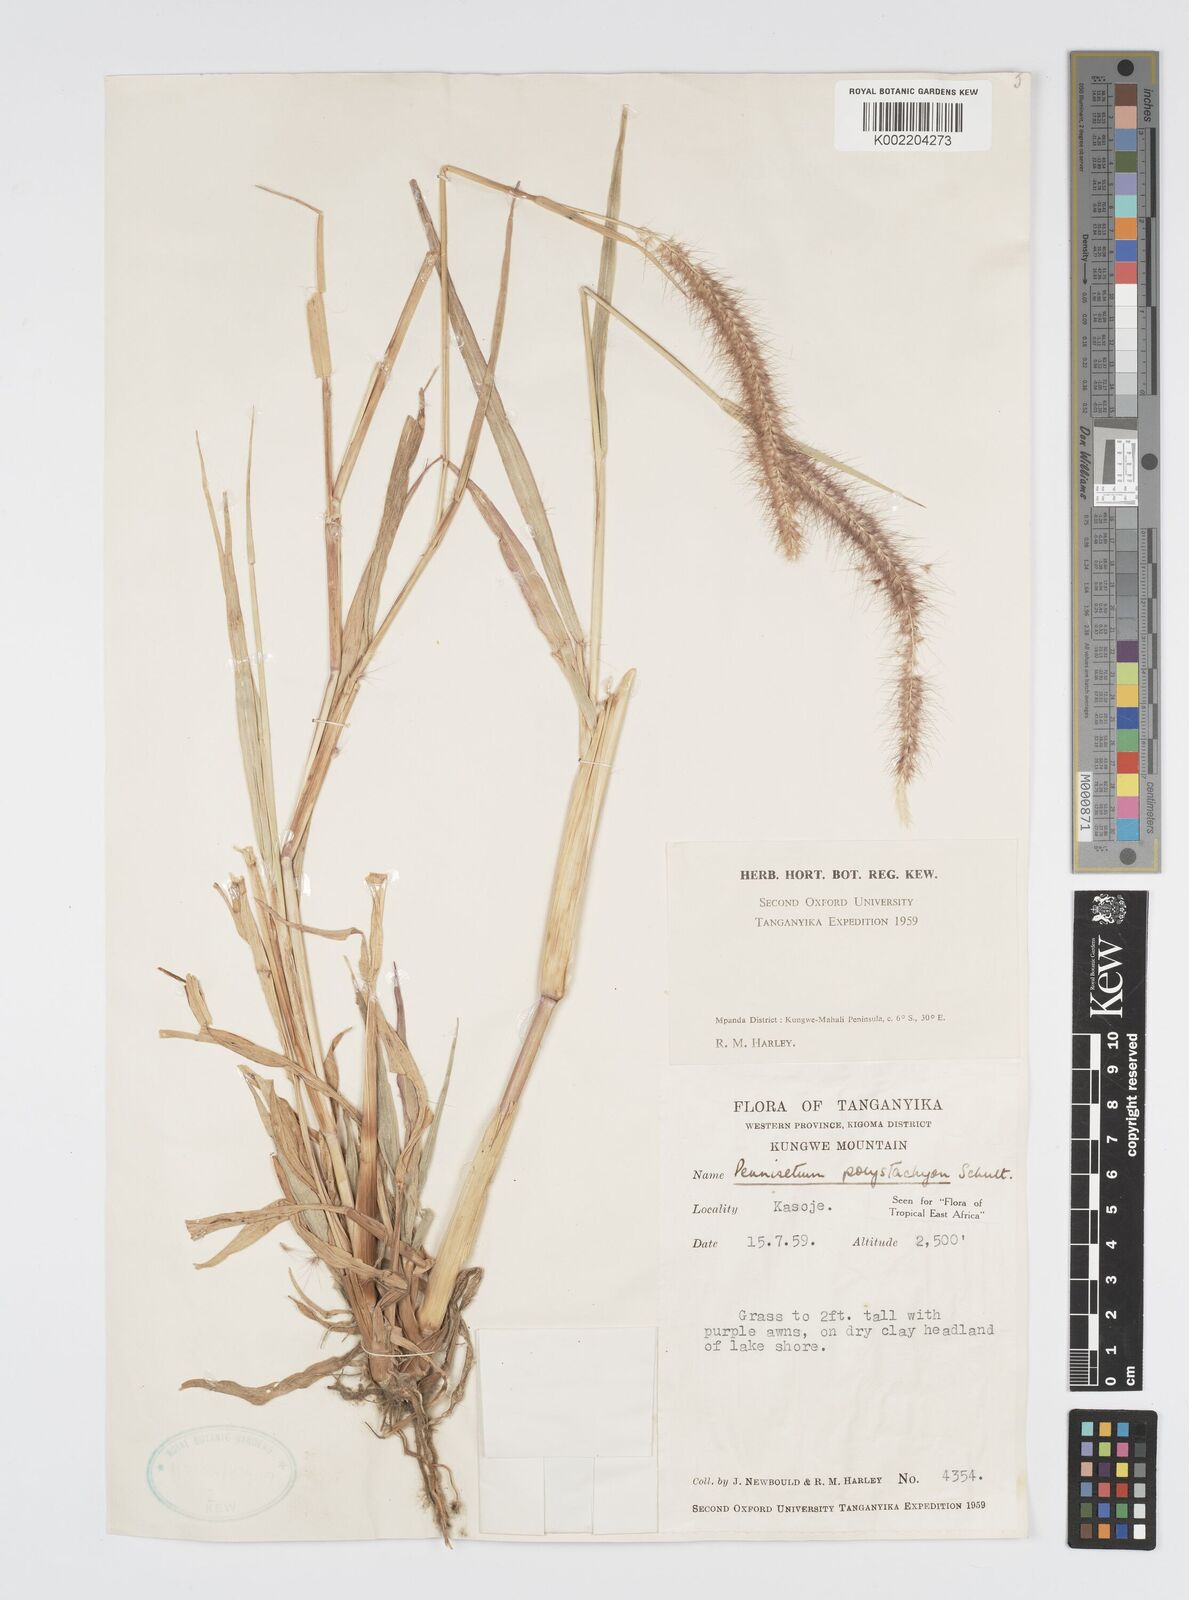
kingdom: Plantae
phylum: Tracheophyta
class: Liliopsida
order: Poales
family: Poaceae
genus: Setaria
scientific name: Setaria parviflora
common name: Knotroot bristle-grass
